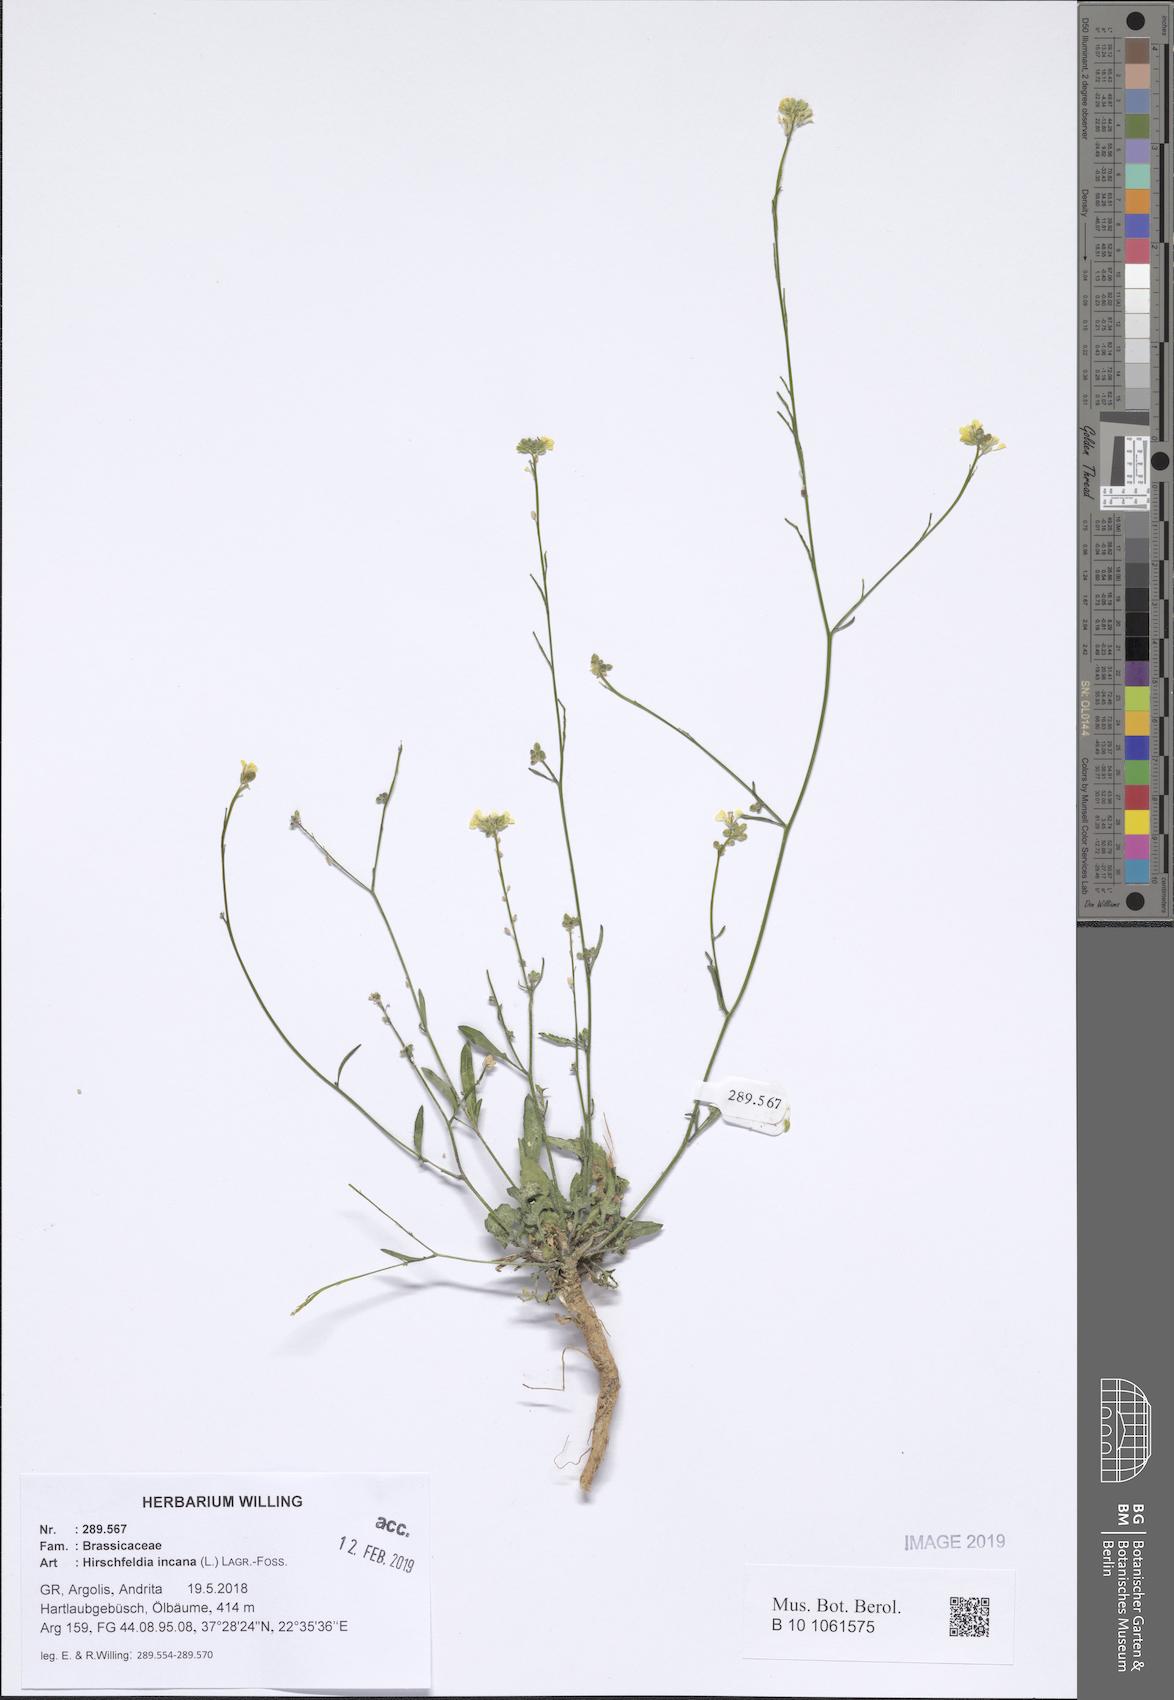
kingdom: Plantae
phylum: Tracheophyta
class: Magnoliopsida
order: Brassicales
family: Brassicaceae
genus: Hirschfeldia
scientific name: Hirschfeldia incana
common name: Hoary mustard
